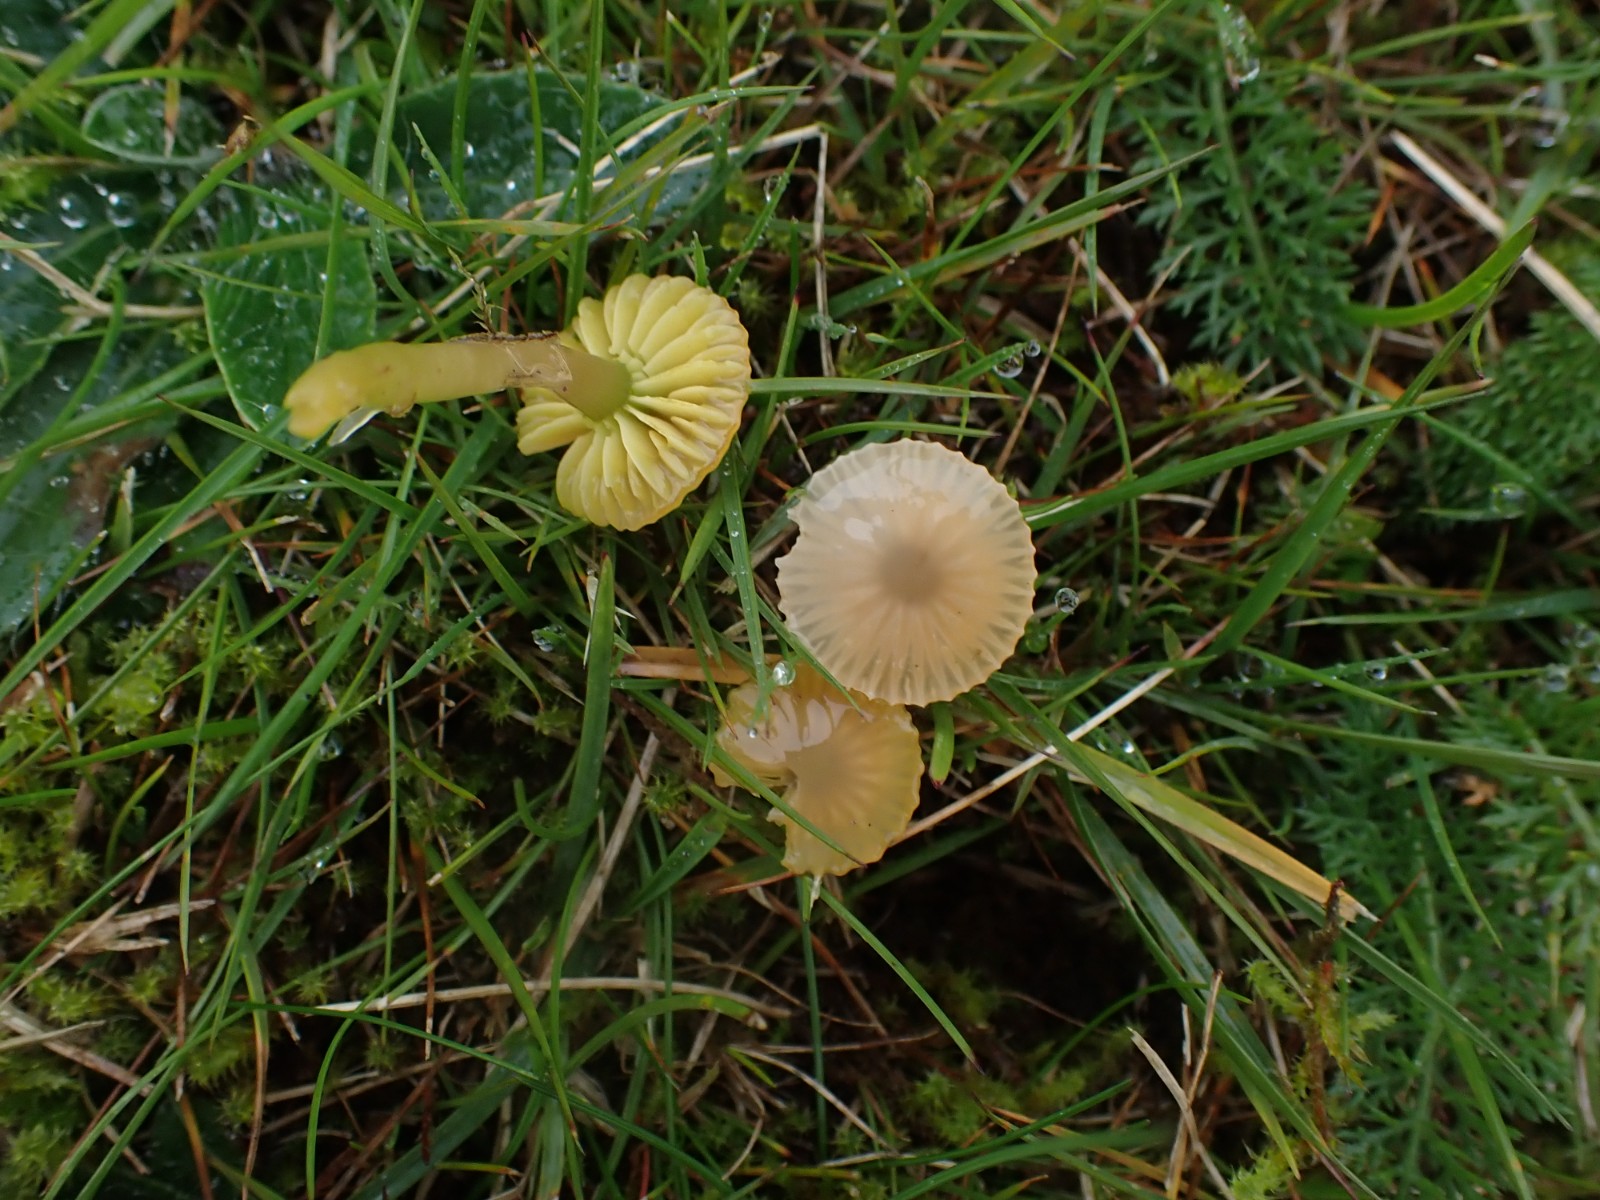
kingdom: Fungi
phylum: Basidiomycota
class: Agaricomycetes
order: Agaricales
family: Hygrophoraceae
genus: Gliophorus
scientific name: Gliophorus psittacinus
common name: papegøje-vokshat
